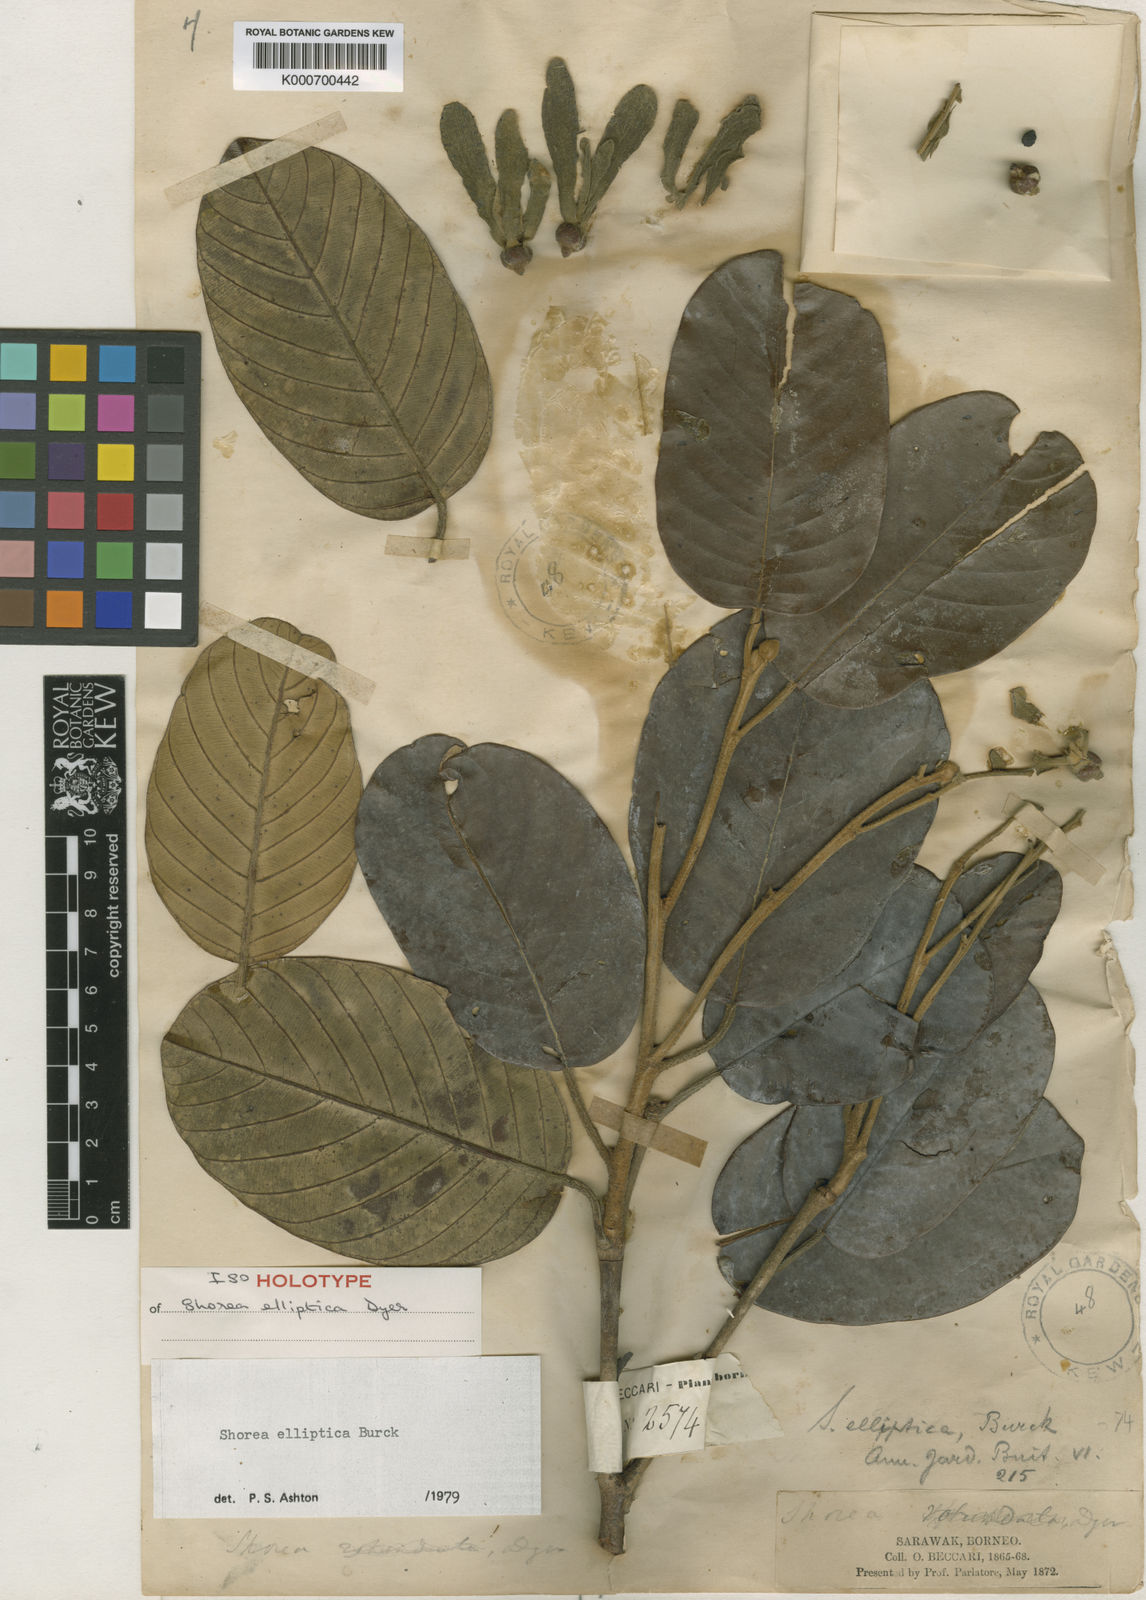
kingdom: Plantae
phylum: Tracheophyta
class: Magnoliopsida
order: Malvales
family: Dipterocarpaceae
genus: Shorea
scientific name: Shorea elliptica
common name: Dark red meranti
